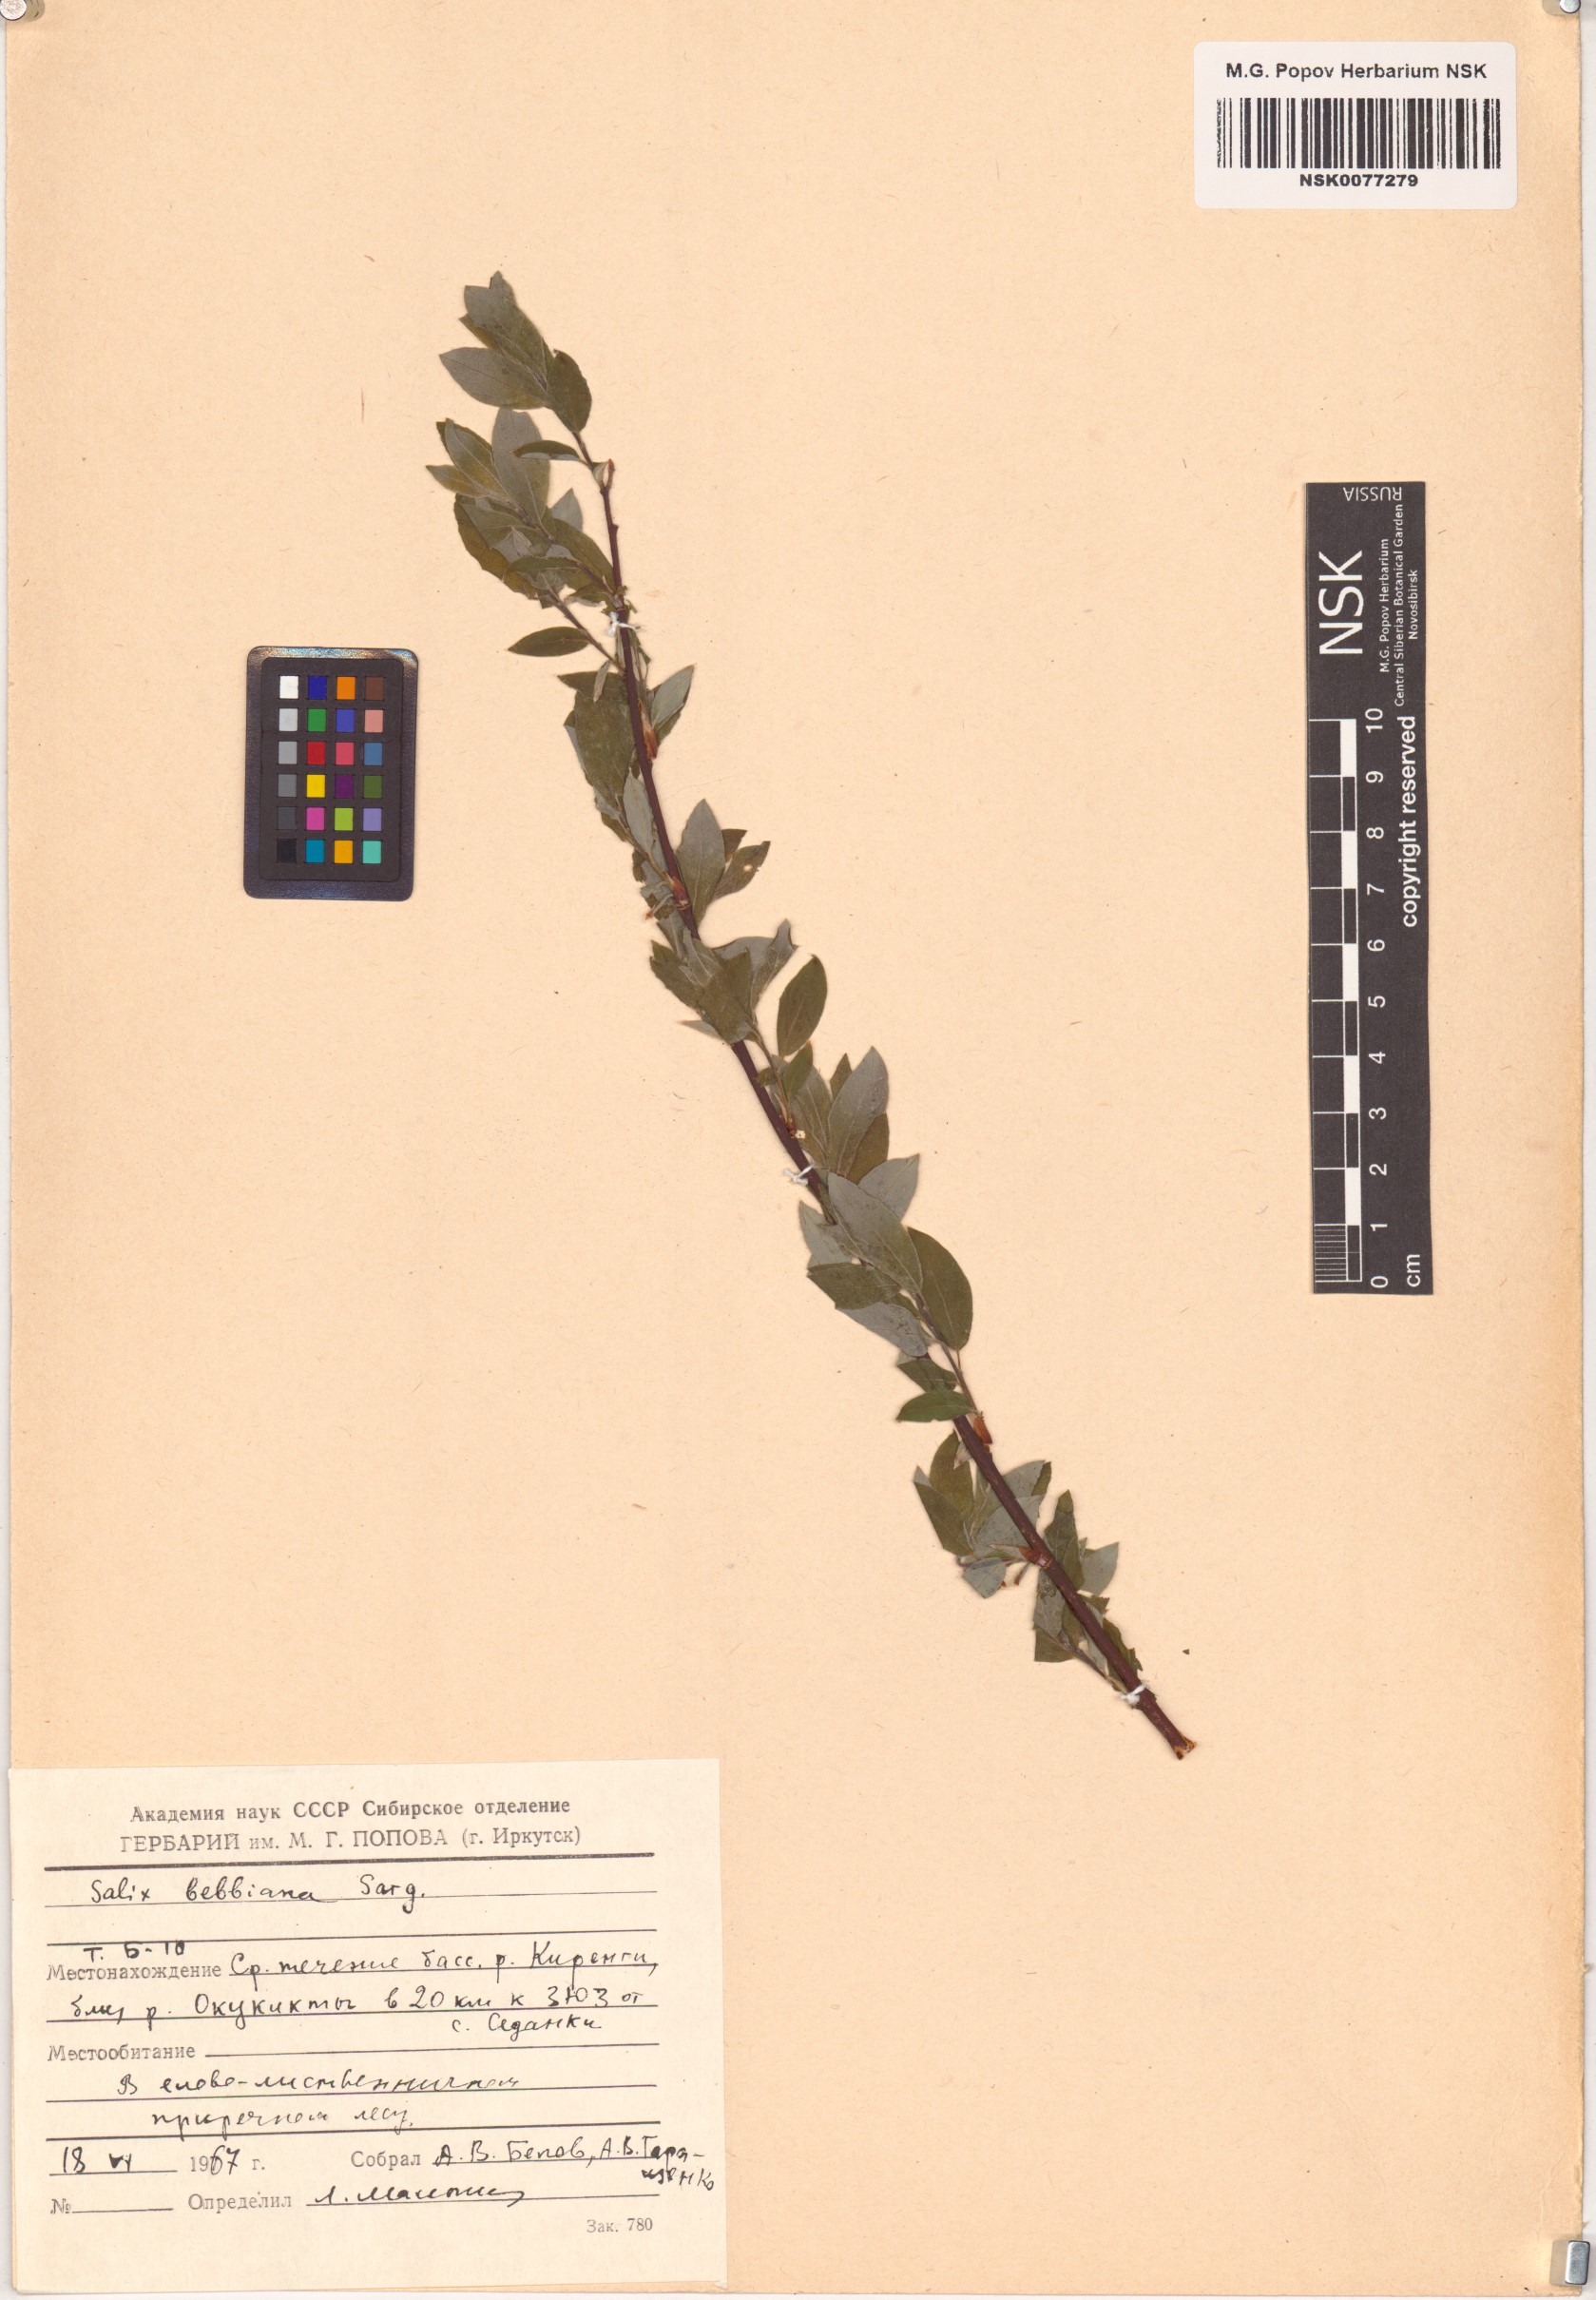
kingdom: Plantae
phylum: Tracheophyta
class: Magnoliopsida
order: Malpighiales
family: Salicaceae
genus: Salix
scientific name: Salix bebbiana
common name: Bebb's willow
